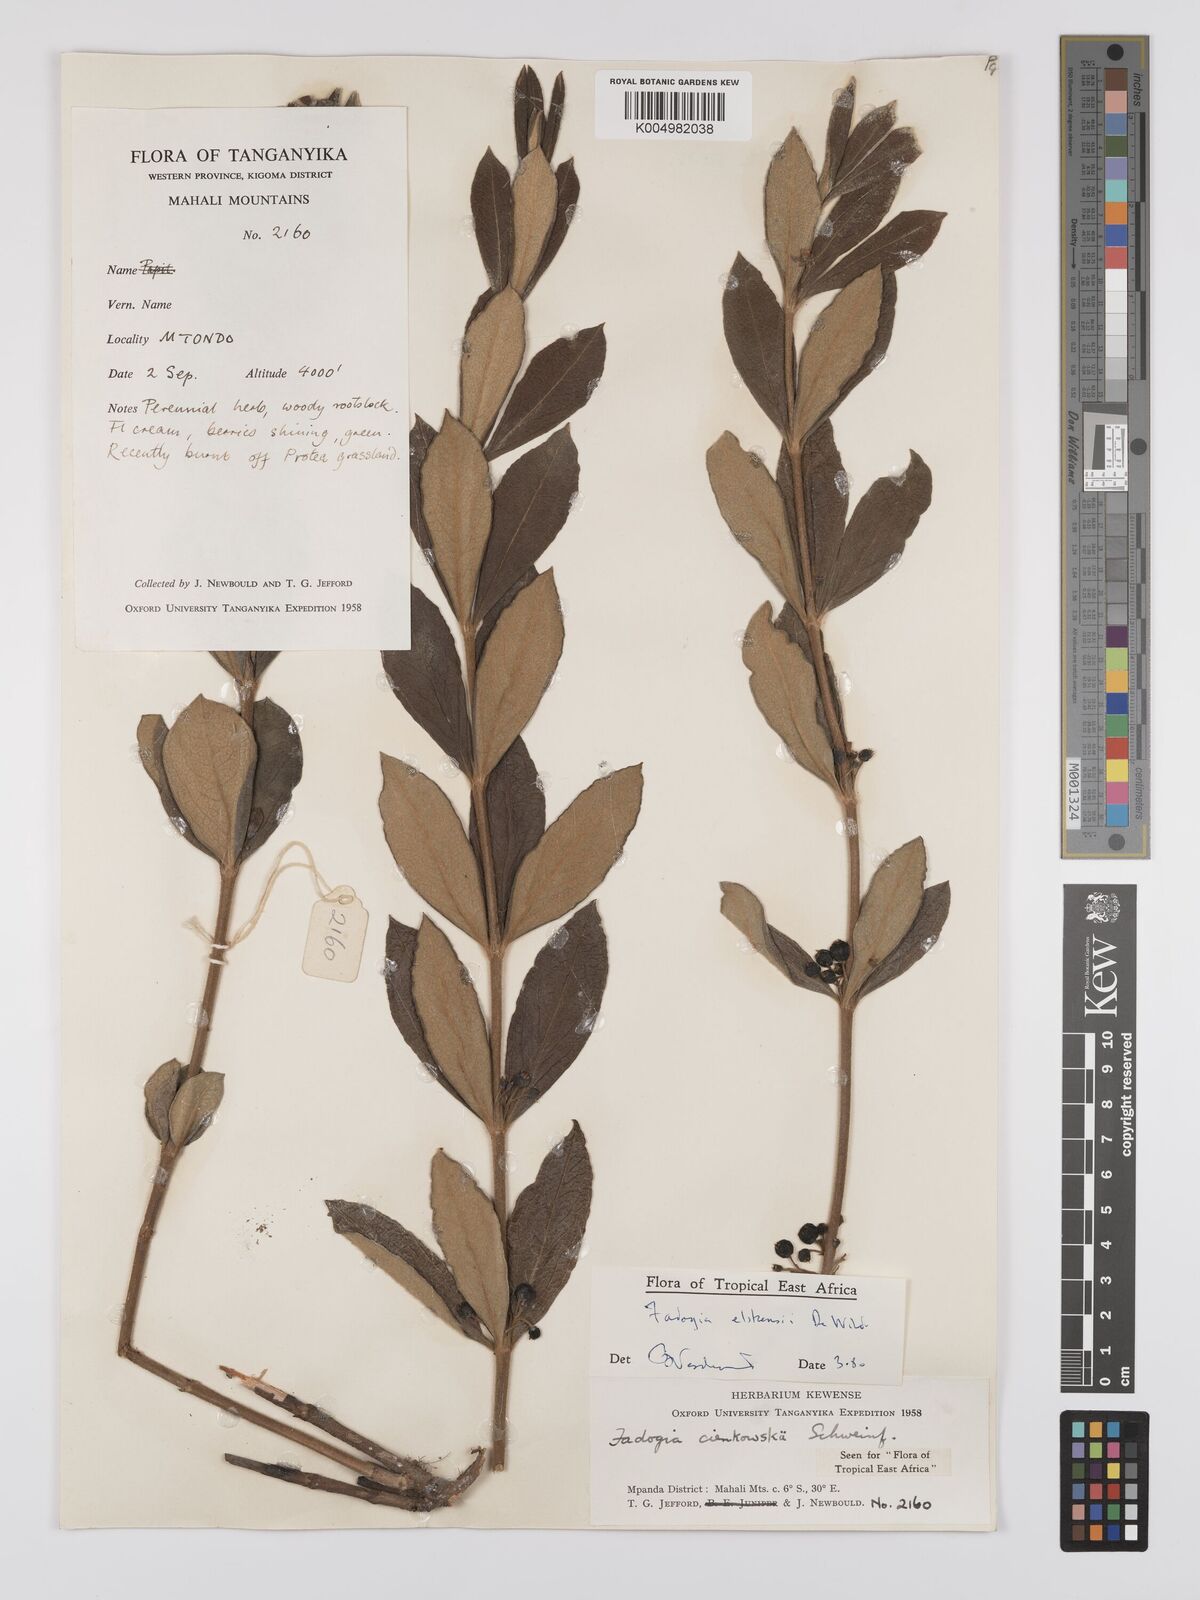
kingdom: Plantae
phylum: Tracheophyta
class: Magnoliopsida
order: Gentianales
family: Rubiaceae
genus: Fadogia
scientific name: Fadogia elskensii
